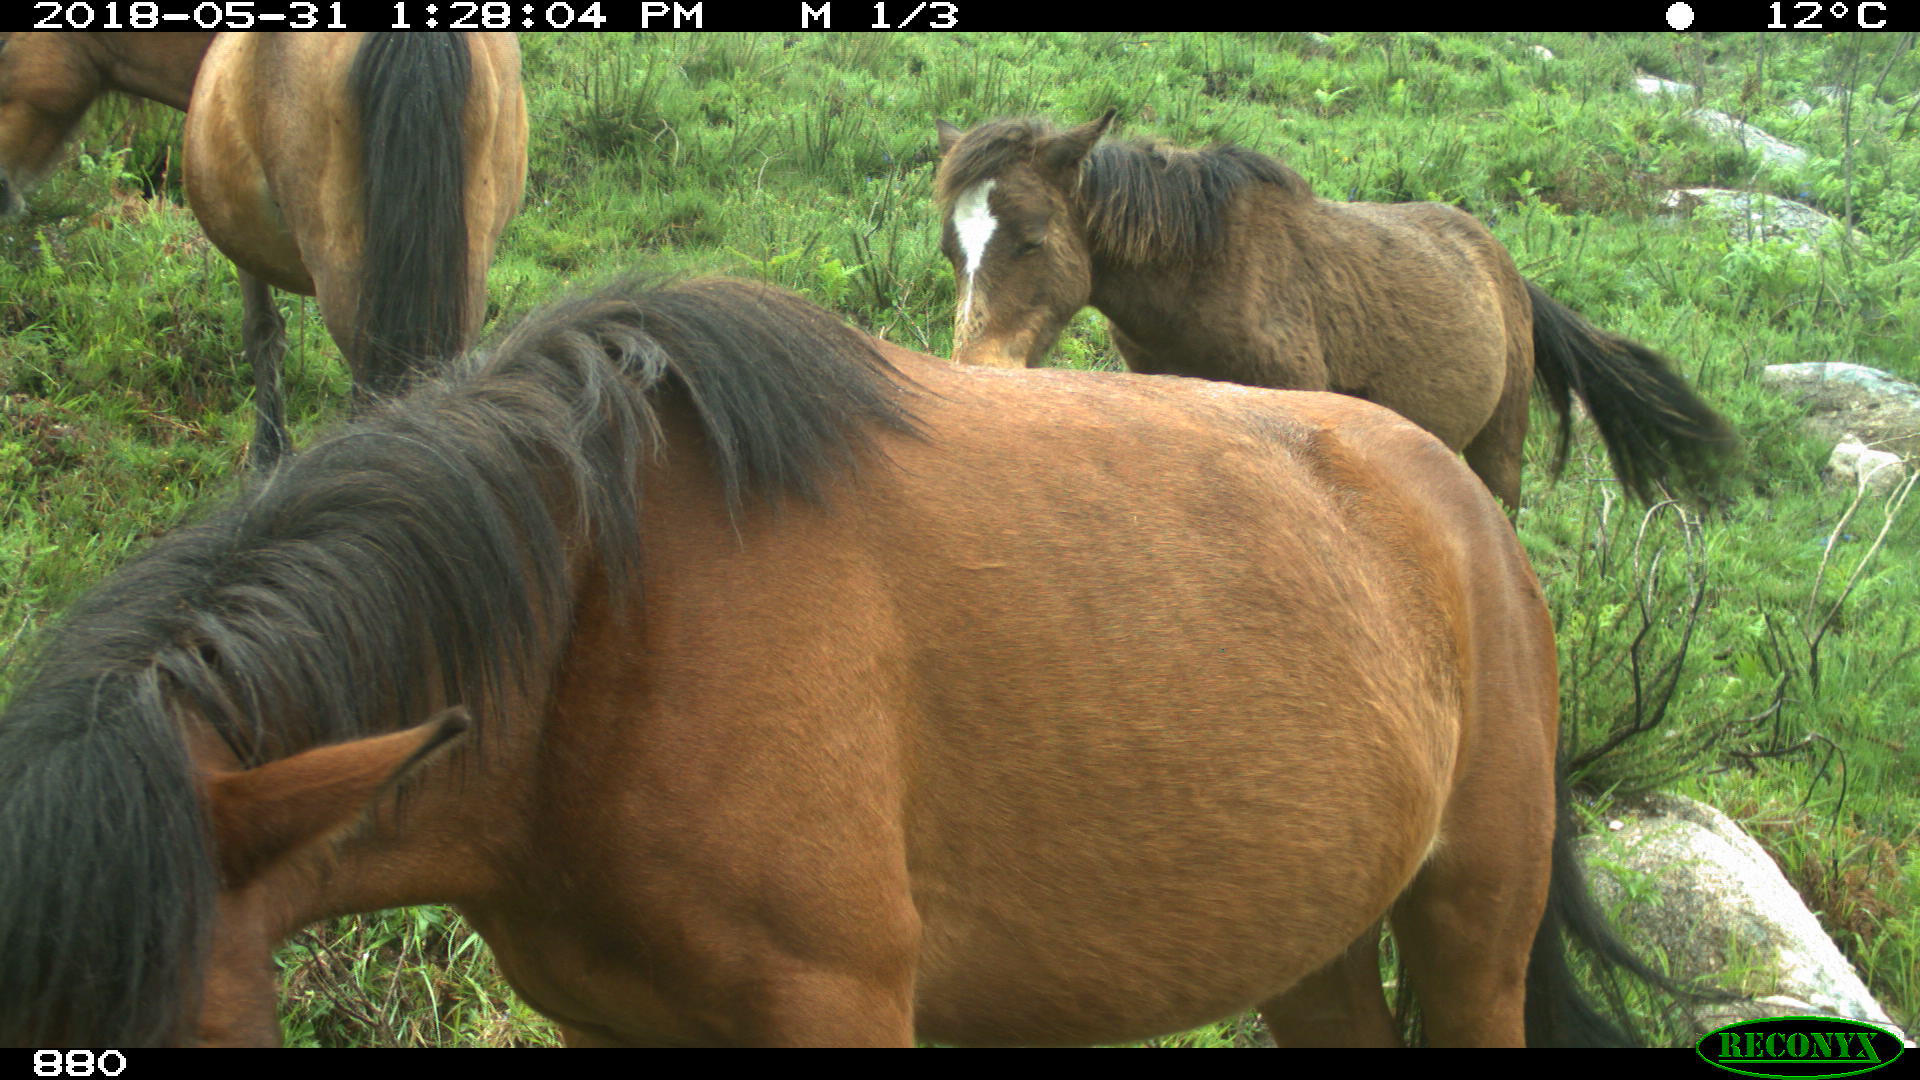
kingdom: Animalia
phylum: Chordata
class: Mammalia
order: Perissodactyla
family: Equidae
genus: Equus
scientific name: Equus caballus
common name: Horse
